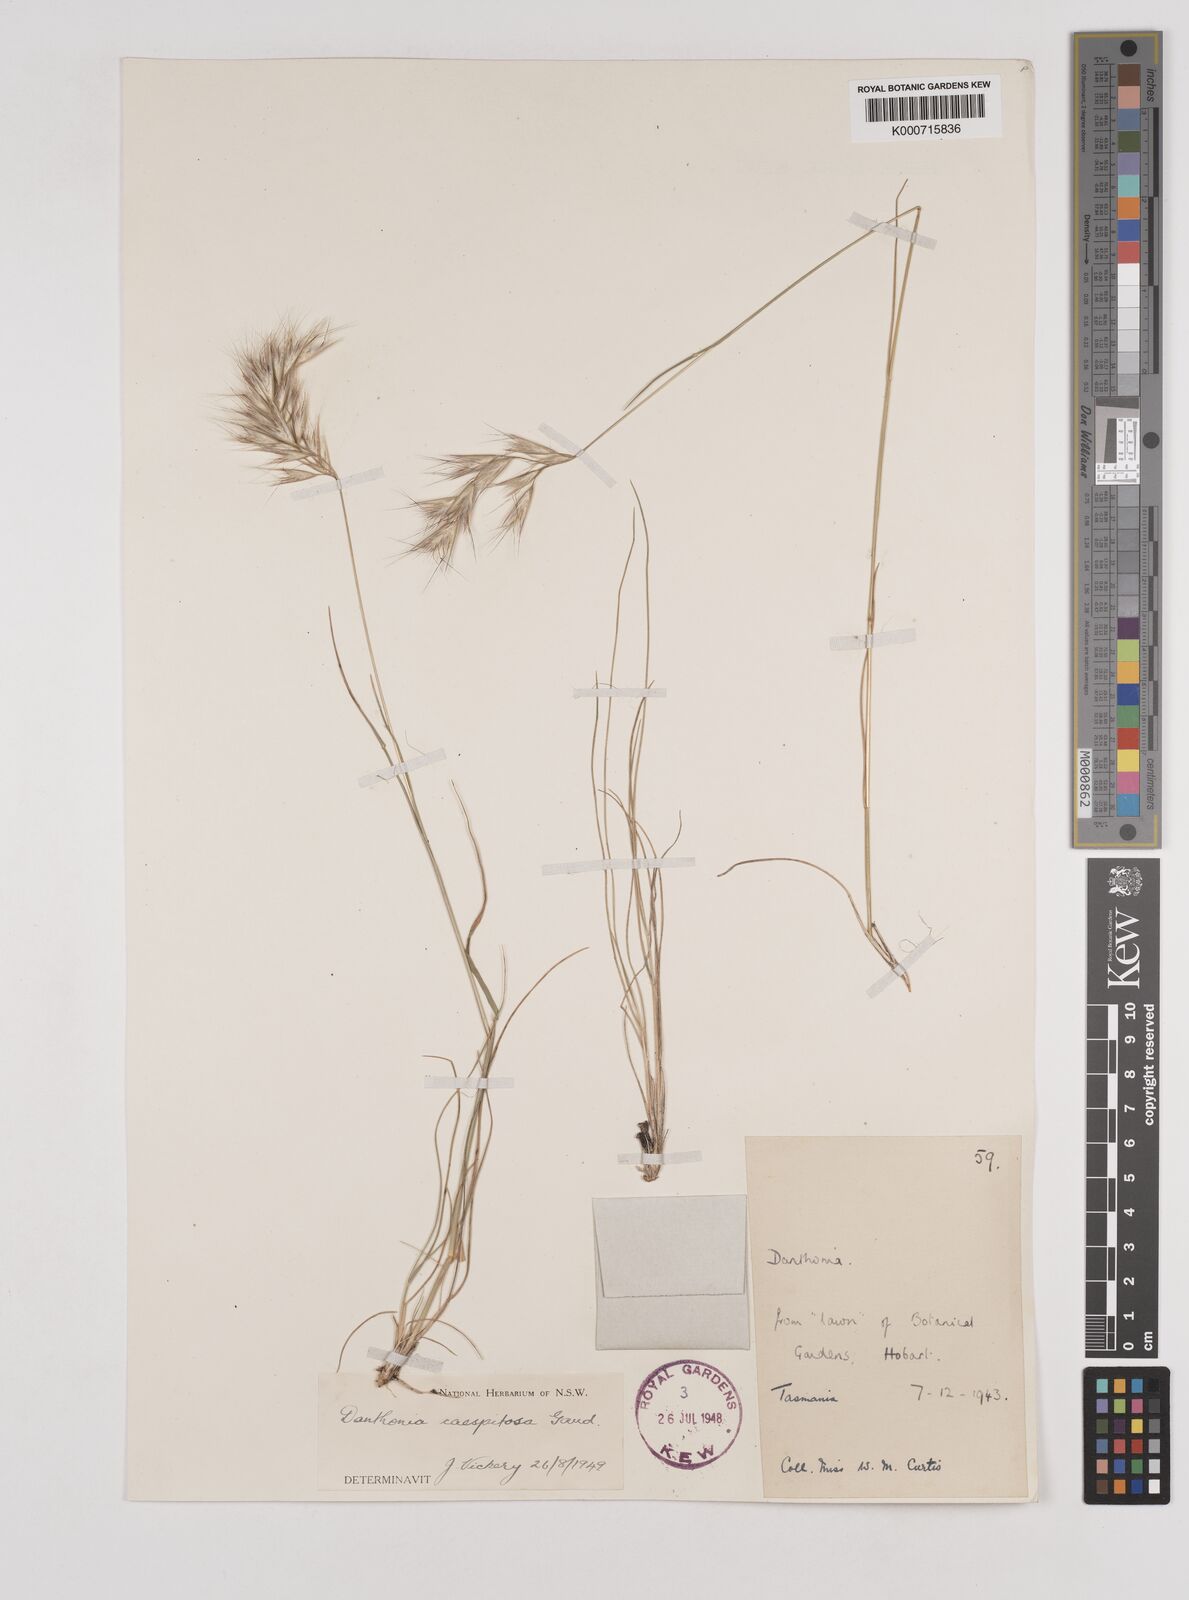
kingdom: Plantae
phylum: Tracheophyta
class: Liliopsida
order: Poales
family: Poaceae
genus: Rytidosperma
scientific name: Rytidosperma caespitosum
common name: Tufted wallaby grass
